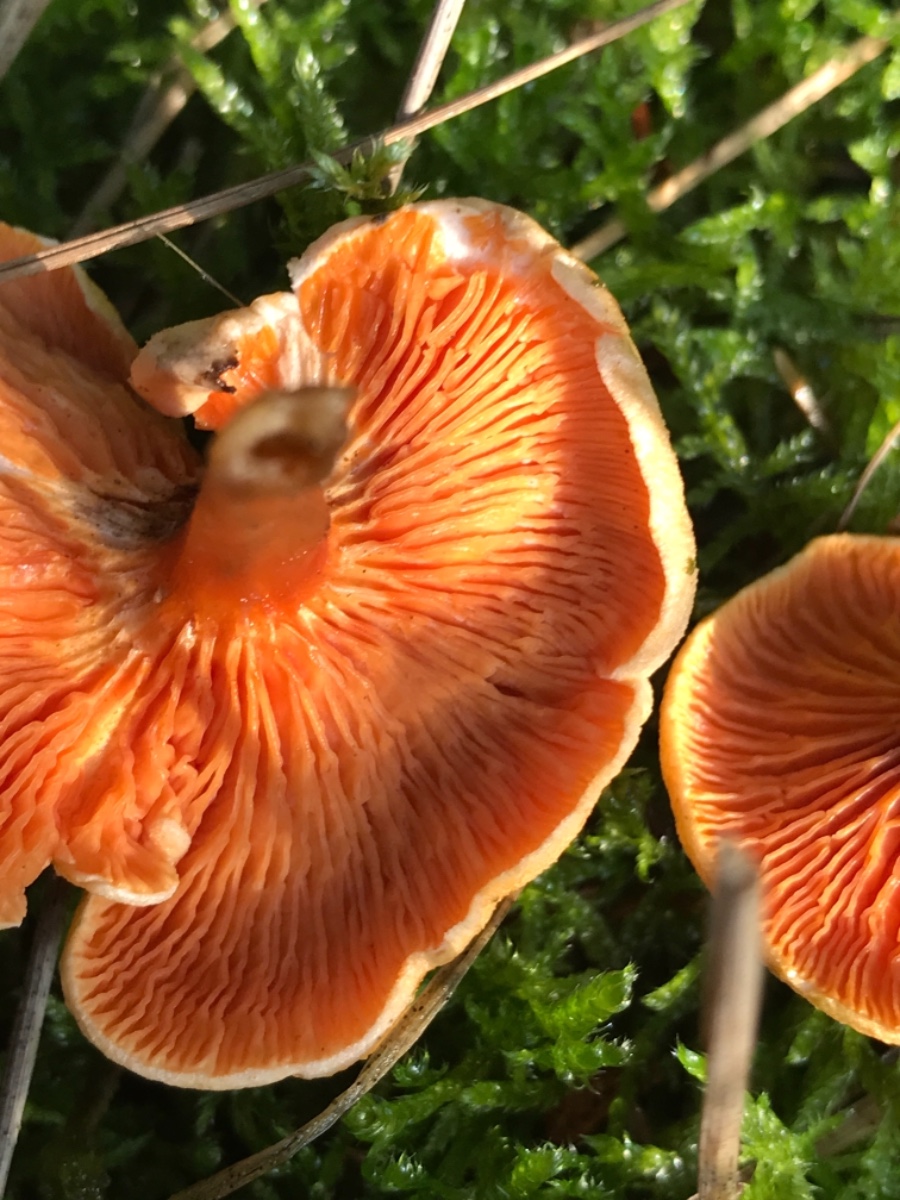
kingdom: Fungi
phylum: Basidiomycota
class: Agaricomycetes
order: Boletales
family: Hygrophoropsidaceae
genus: Hygrophoropsis
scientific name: Hygrophoropsis aurantiaca
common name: almindelig orangekantarel
